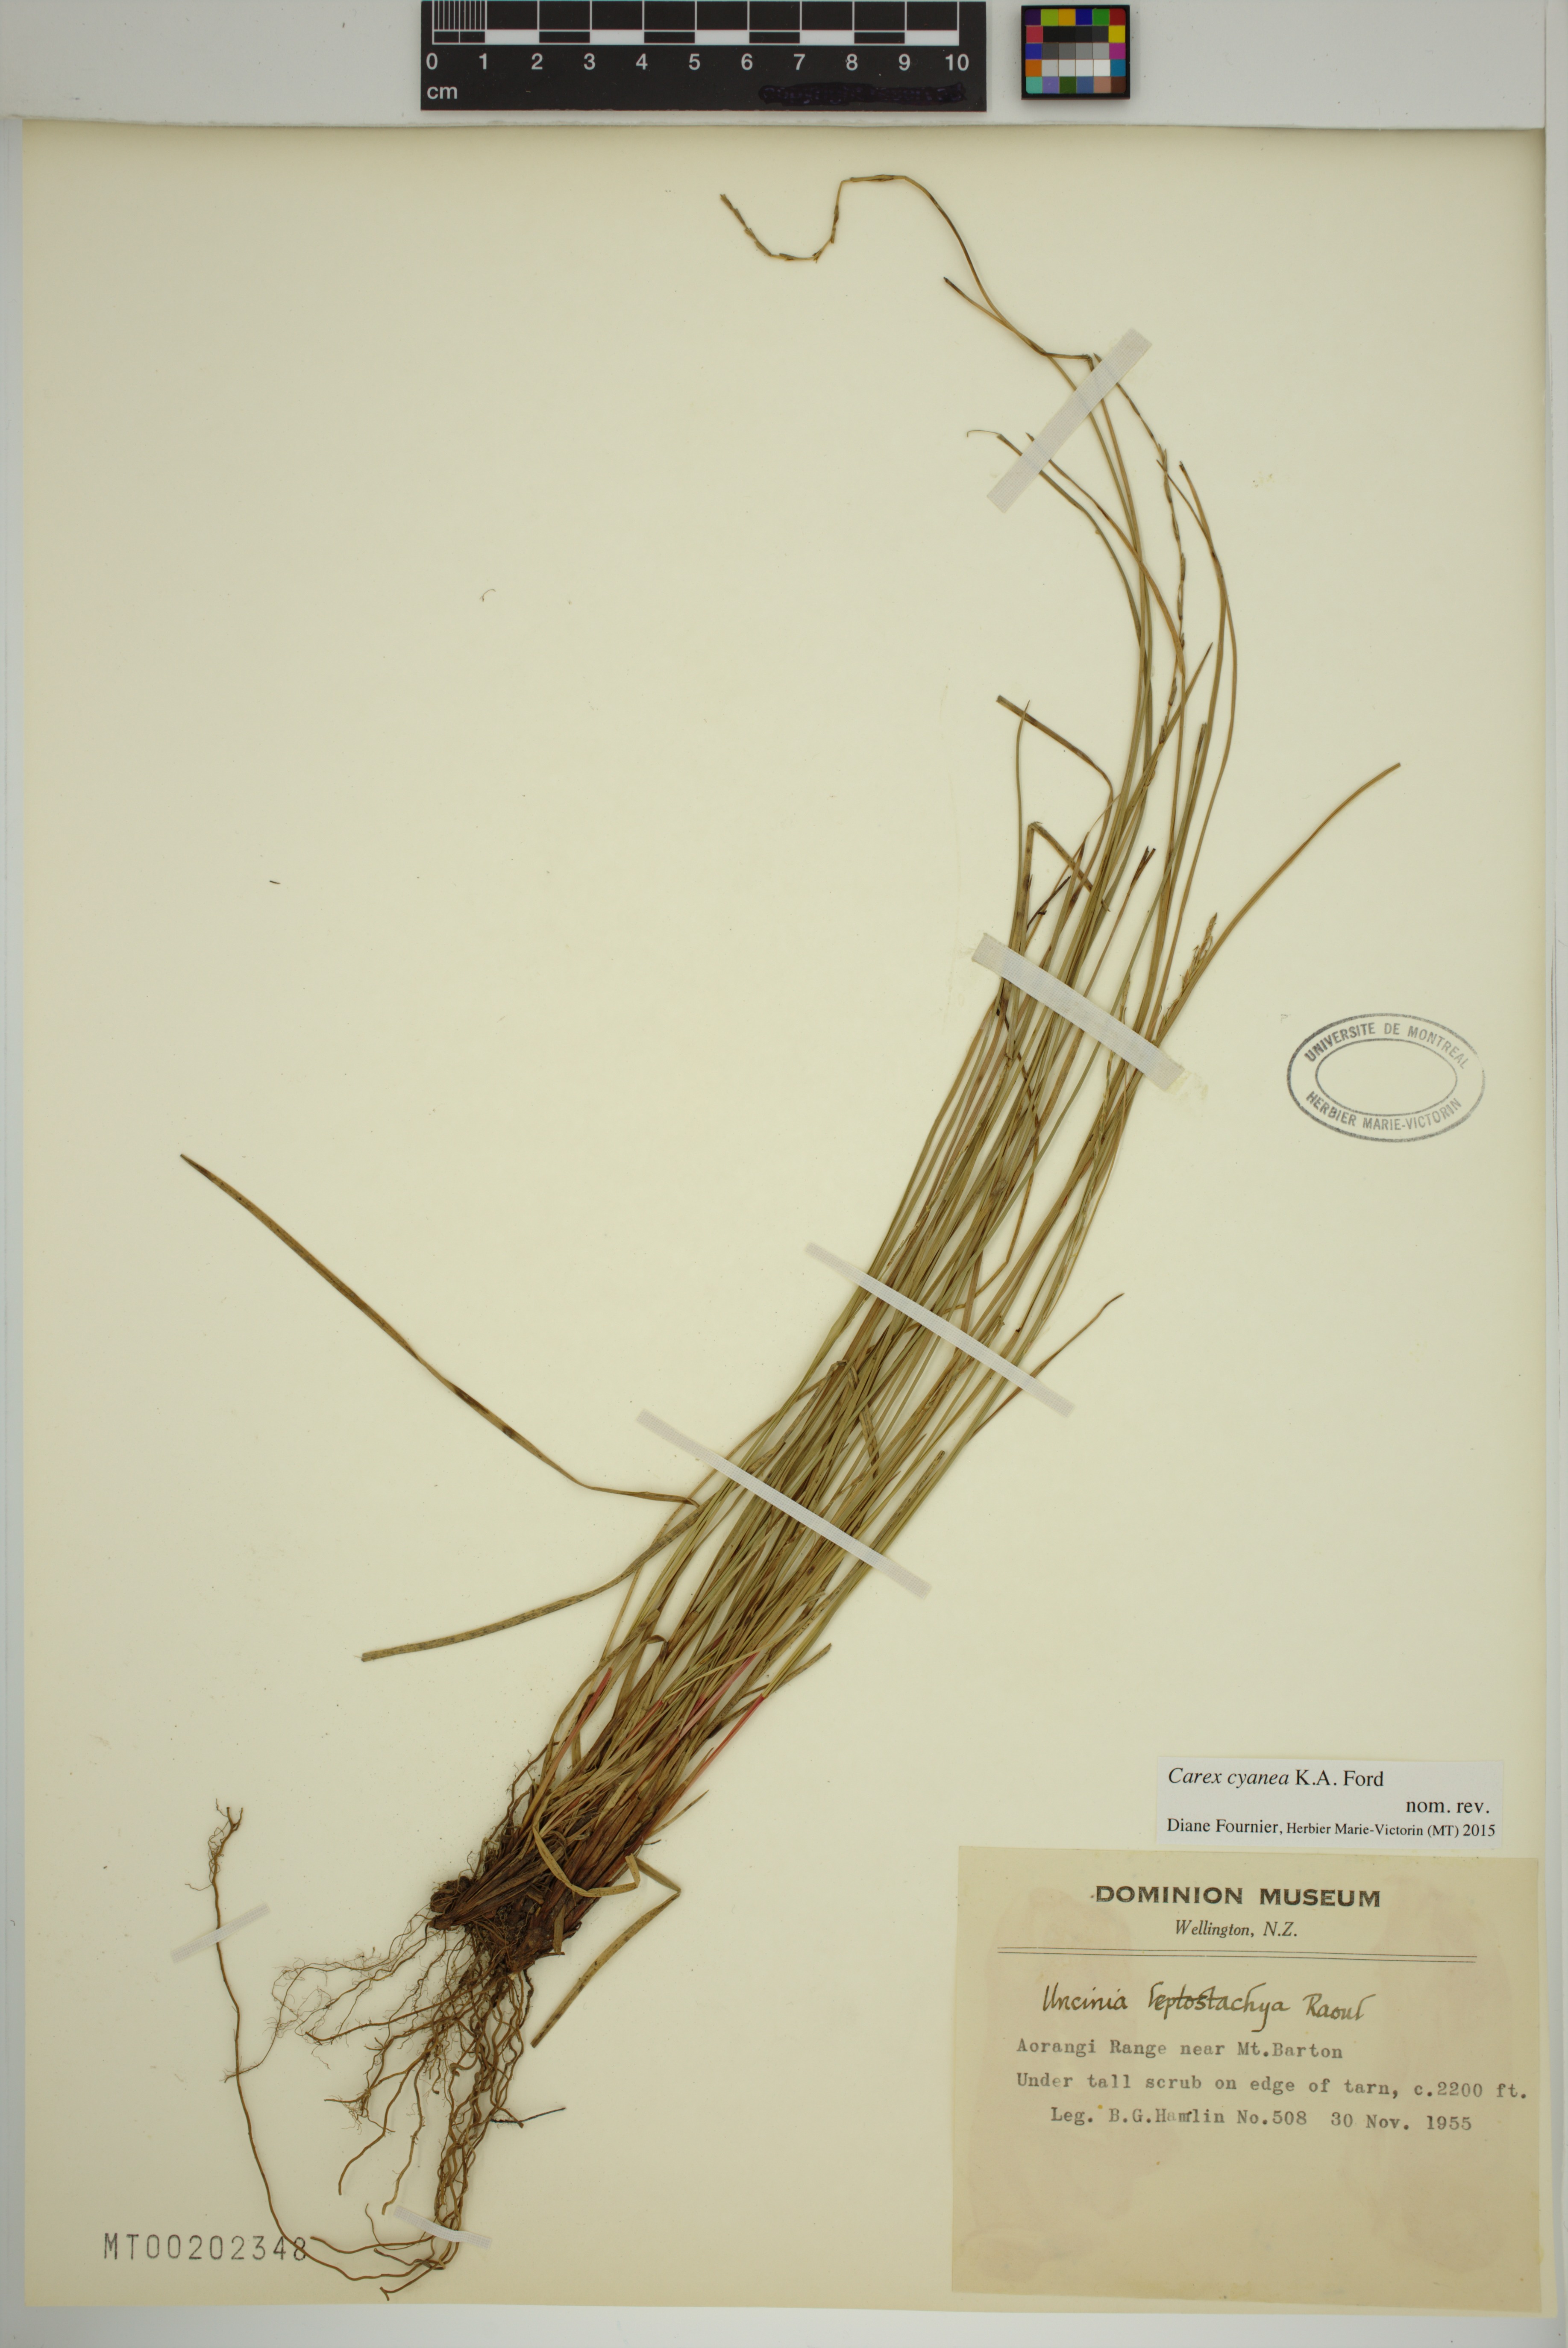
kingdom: Plantae
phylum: Tracheophyta
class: Liliopsida
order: Poales
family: Cyperaceae
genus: Carex
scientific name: Carex cyanea
